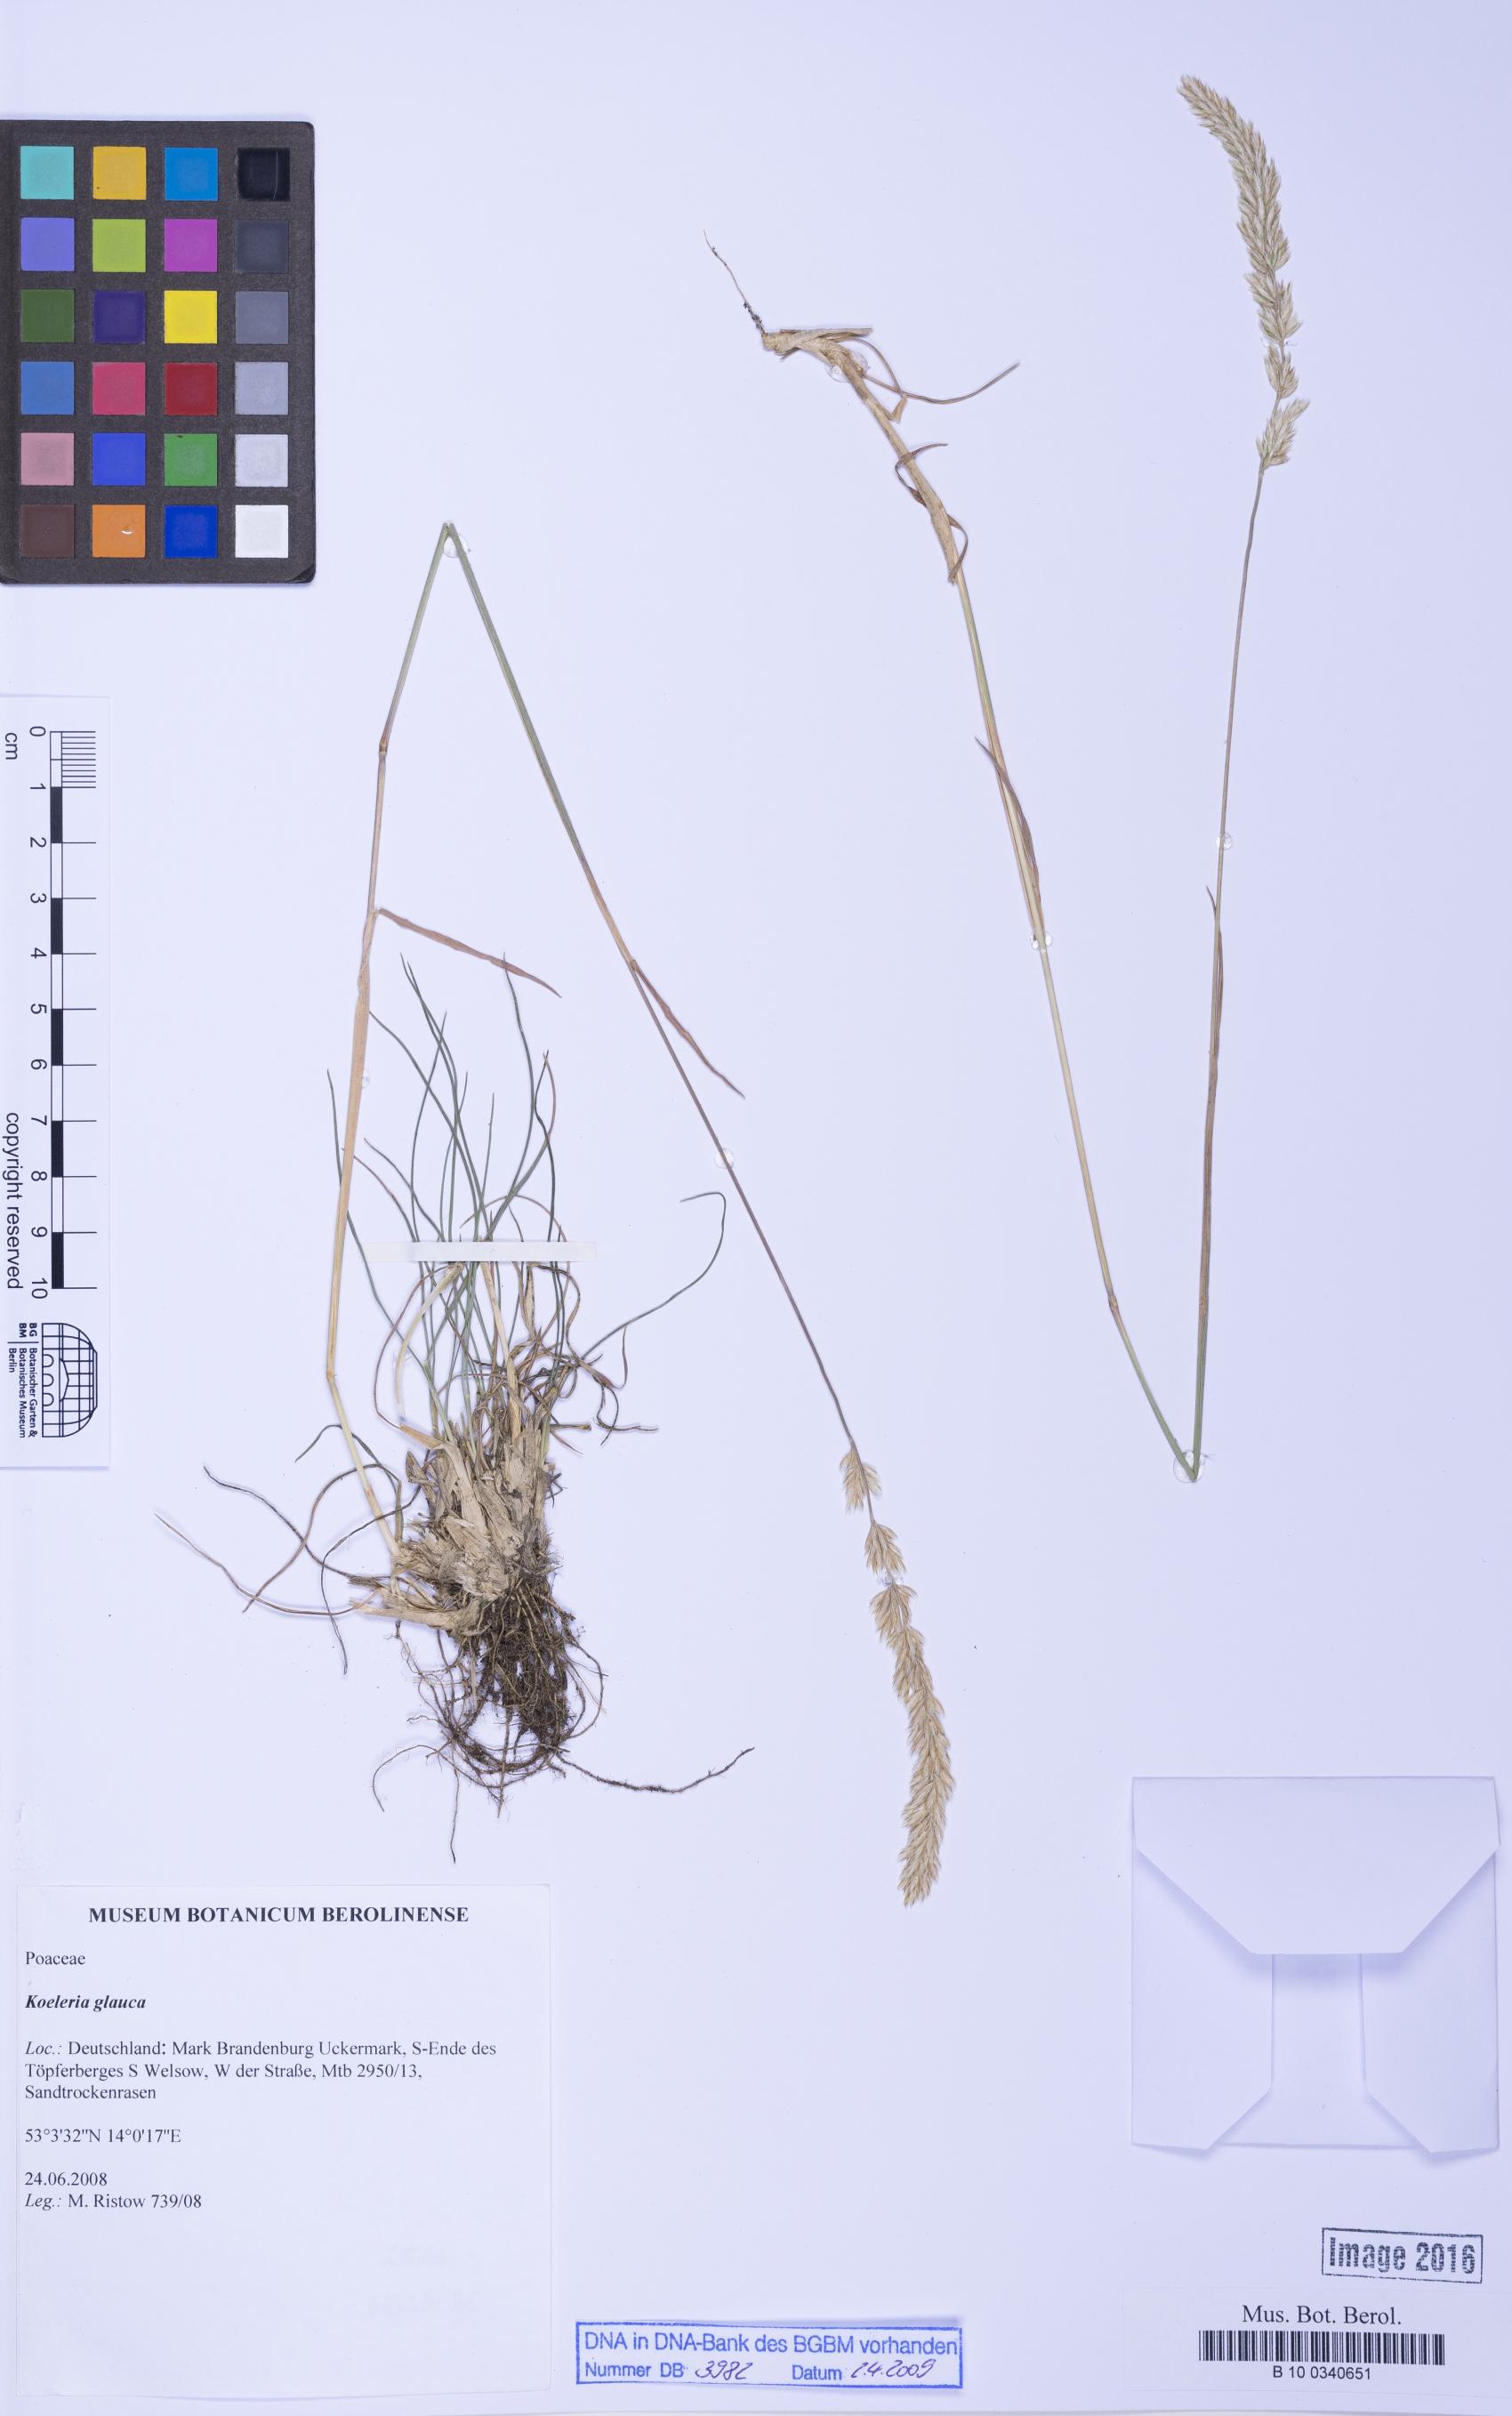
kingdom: Plantae
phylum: Tracheophyta
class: Liliopsida
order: Poales
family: Poaceae
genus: Koeleria
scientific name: Koeleria glauca
